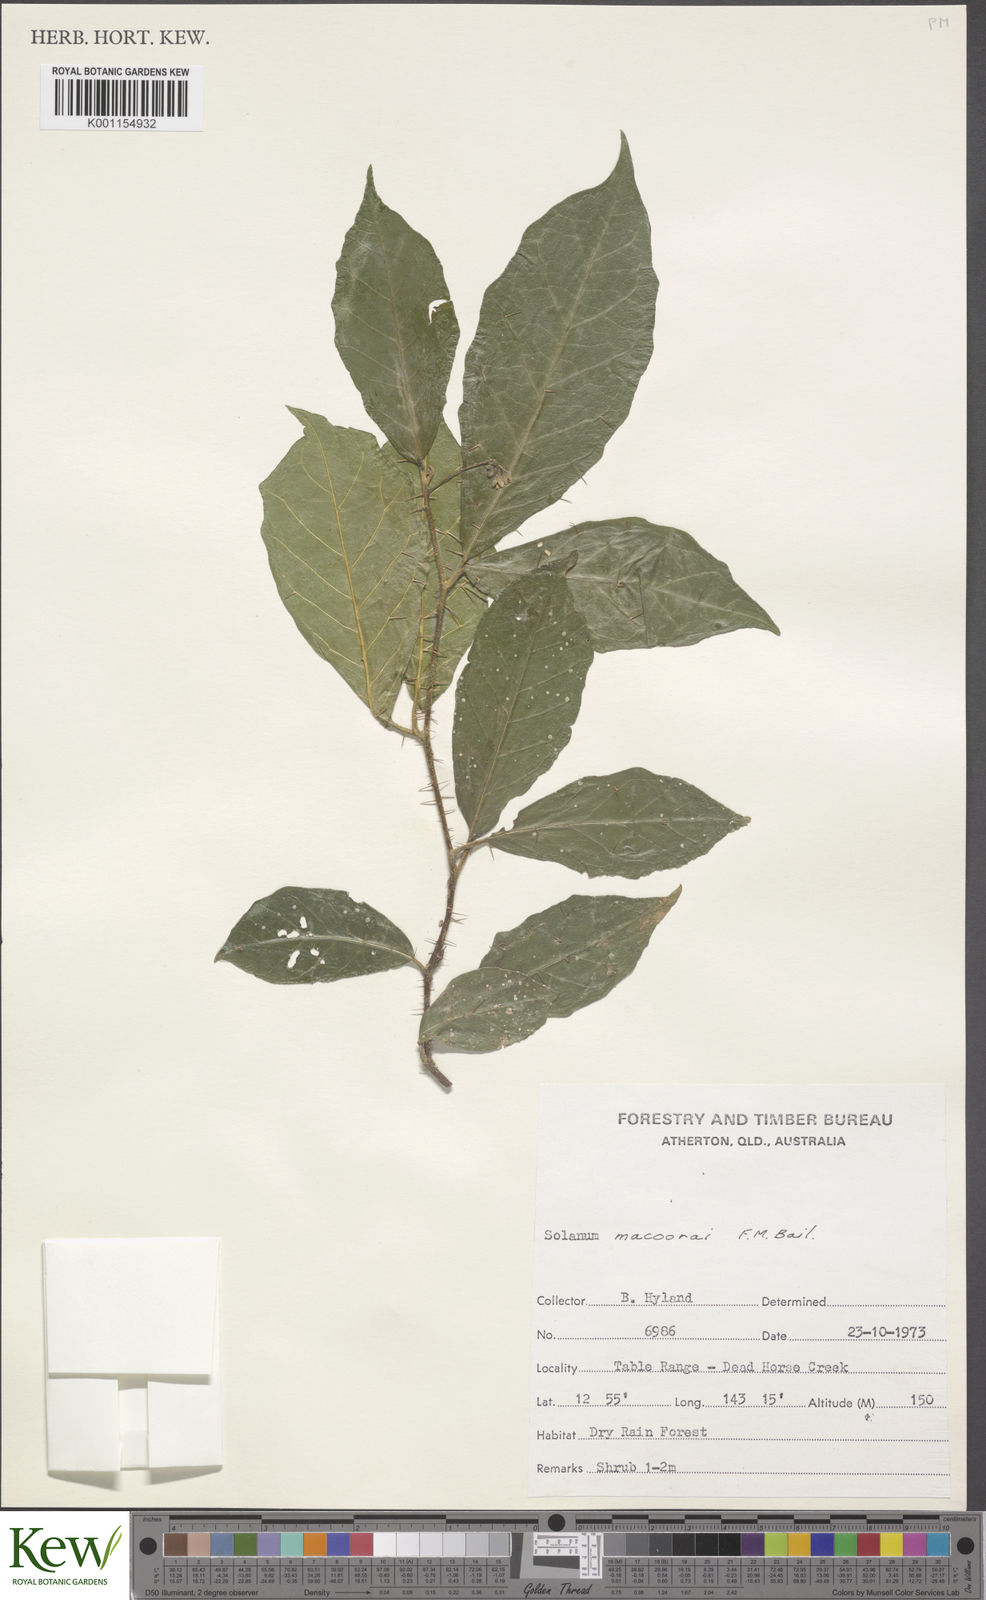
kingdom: Plantae
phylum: Tracheophyta
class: Magnoliopsida
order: Solanales
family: Solanaceae
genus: Solanum
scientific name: Solanum macoorai
